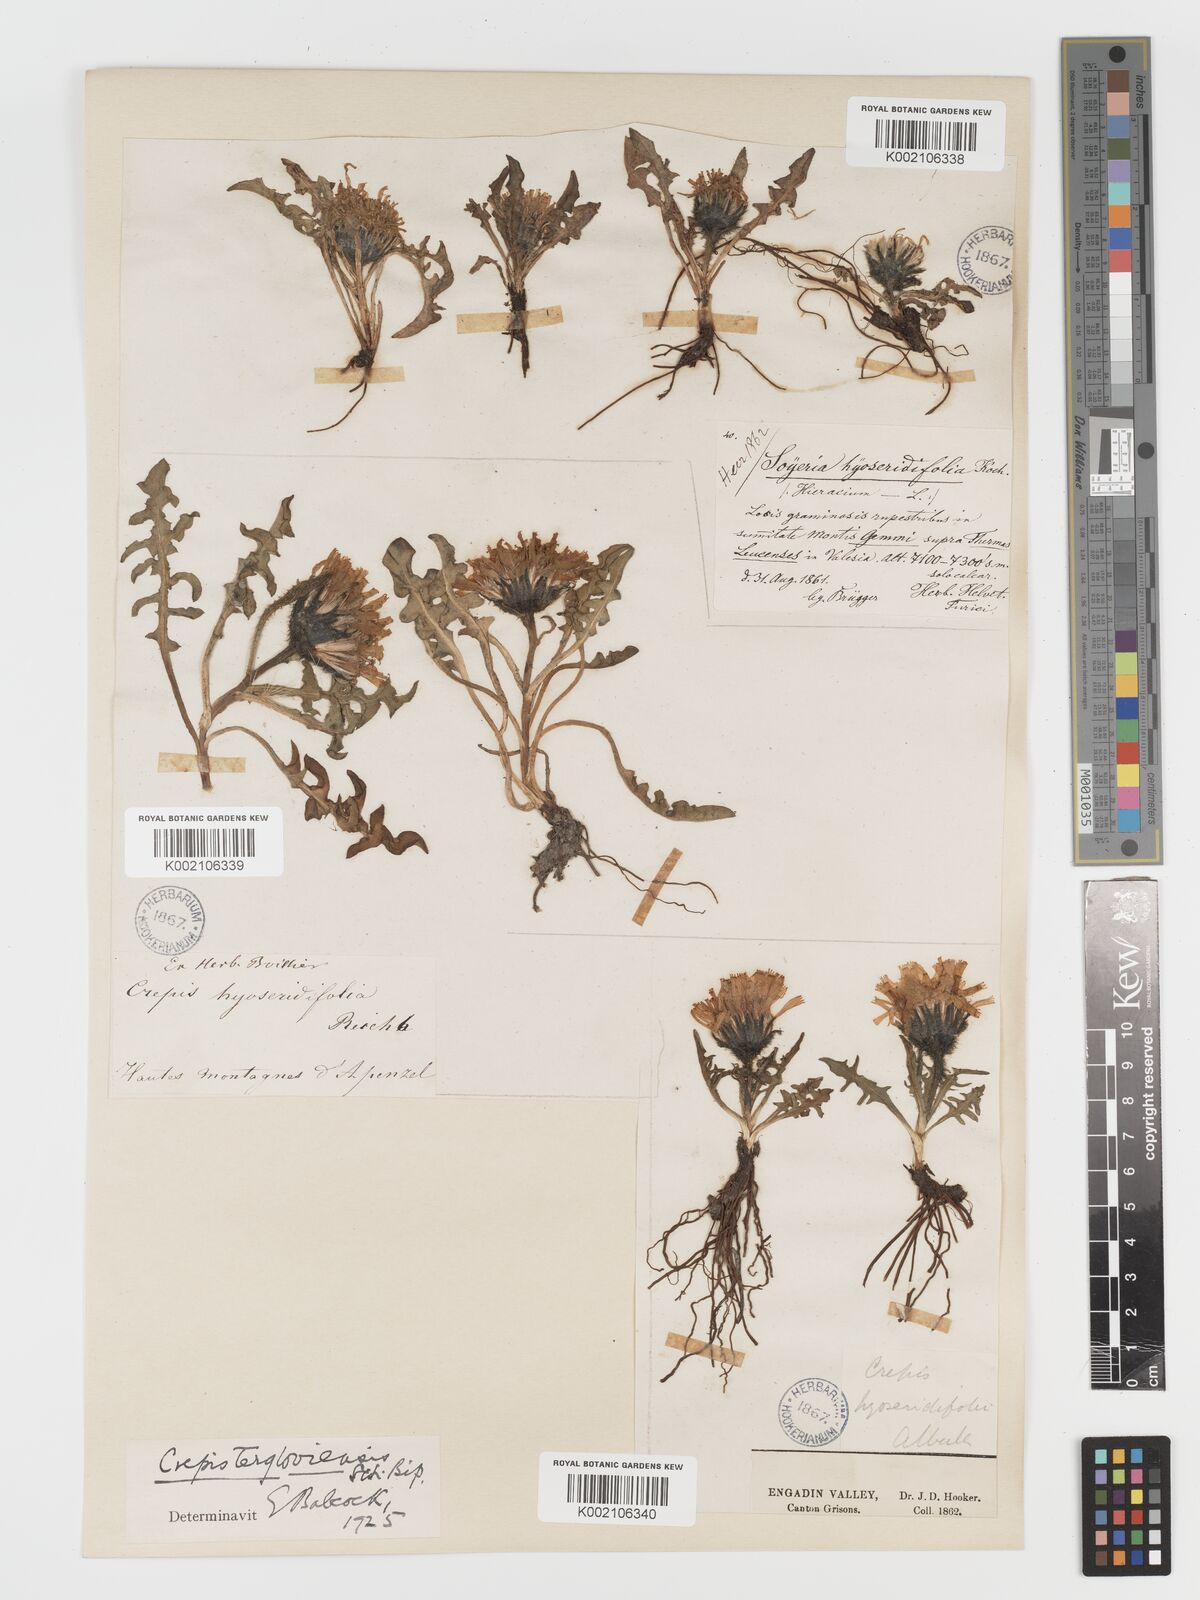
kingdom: Plantae
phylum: Tracheophyta
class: Magnoliopsida
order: Asterales
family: Asteraceae
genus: Crepis
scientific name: Crepis
